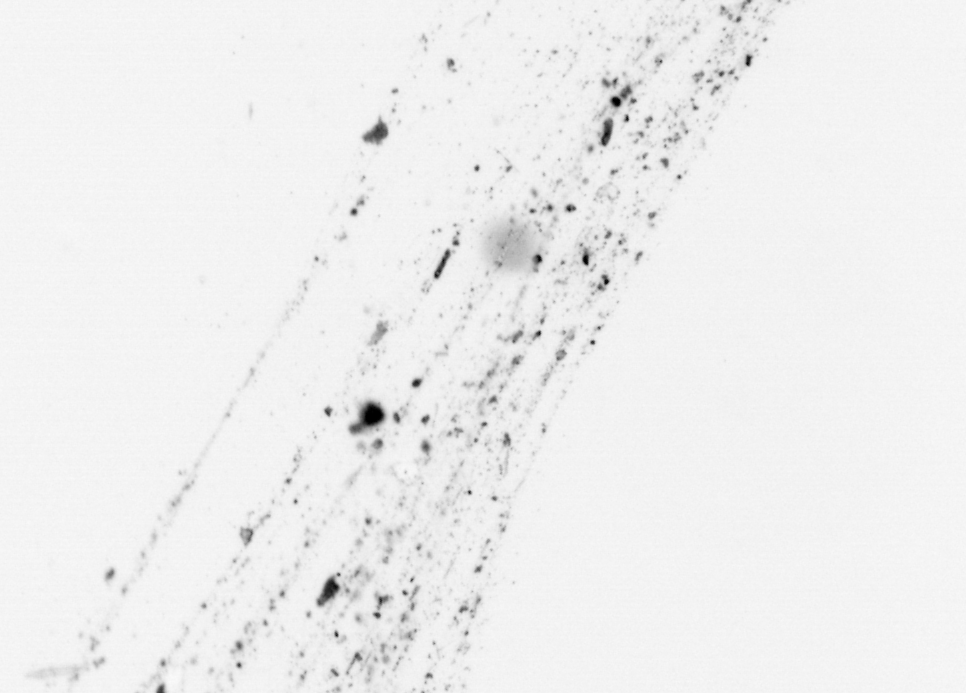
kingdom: Animalia
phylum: Chordata
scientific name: Chordata
